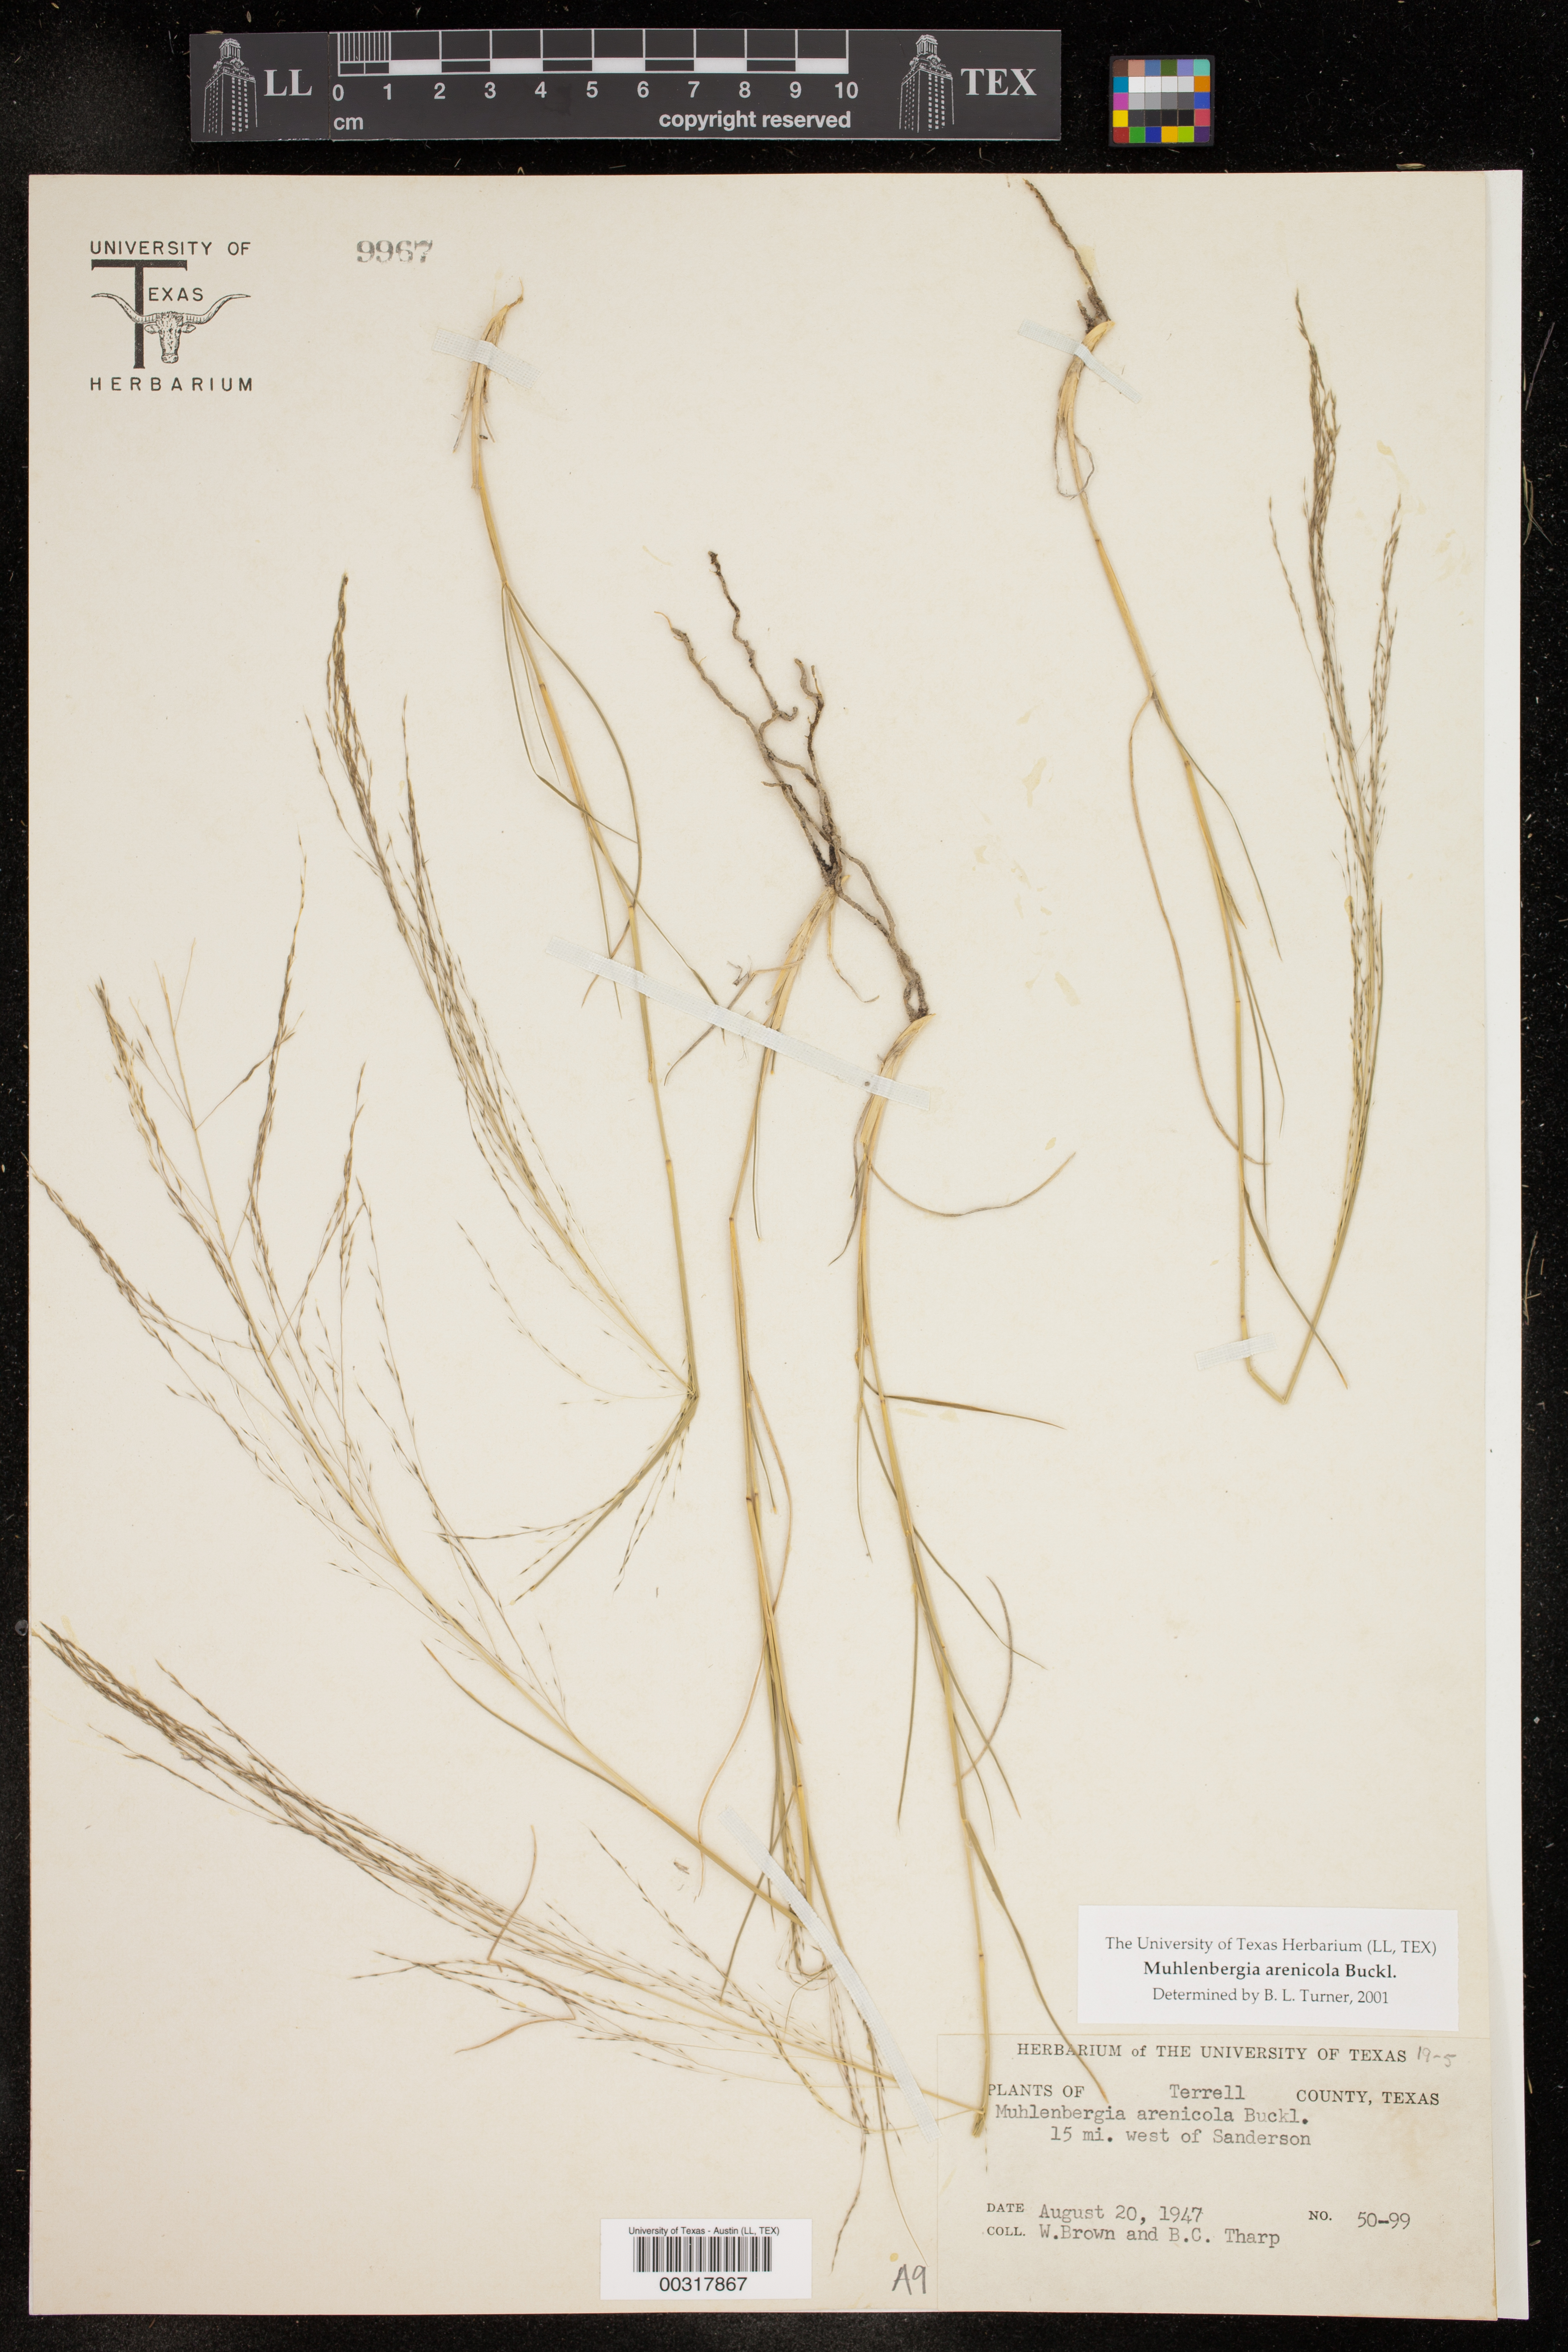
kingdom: Plantae
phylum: Tracheophyta
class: Liliopsida
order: Poales
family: Poaceae
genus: Muhlenbergia
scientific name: Muhlenbergia arenicola
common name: Sand muhly
